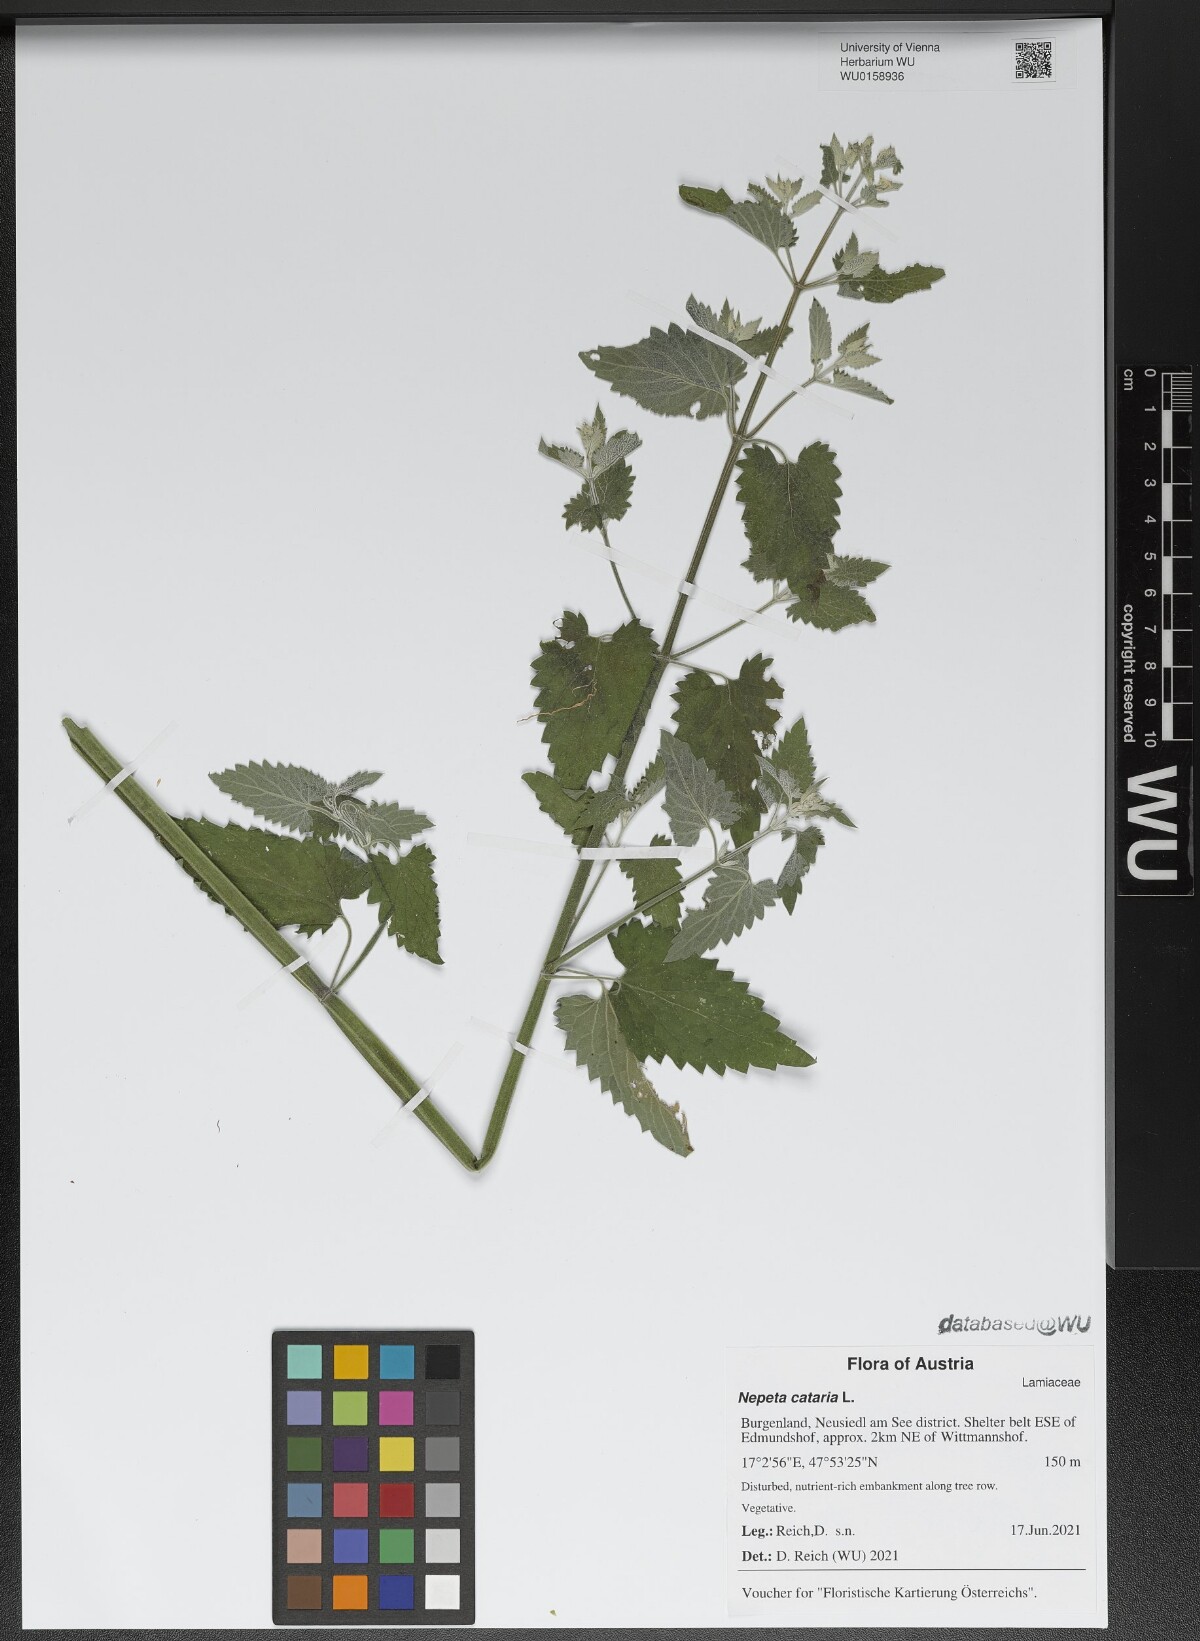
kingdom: Plantae
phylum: Tracheophyta
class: Magnoliopsida
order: Lamiales
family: Lamiaceae
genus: Nepeta
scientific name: Nepeta cataria
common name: Catnip
